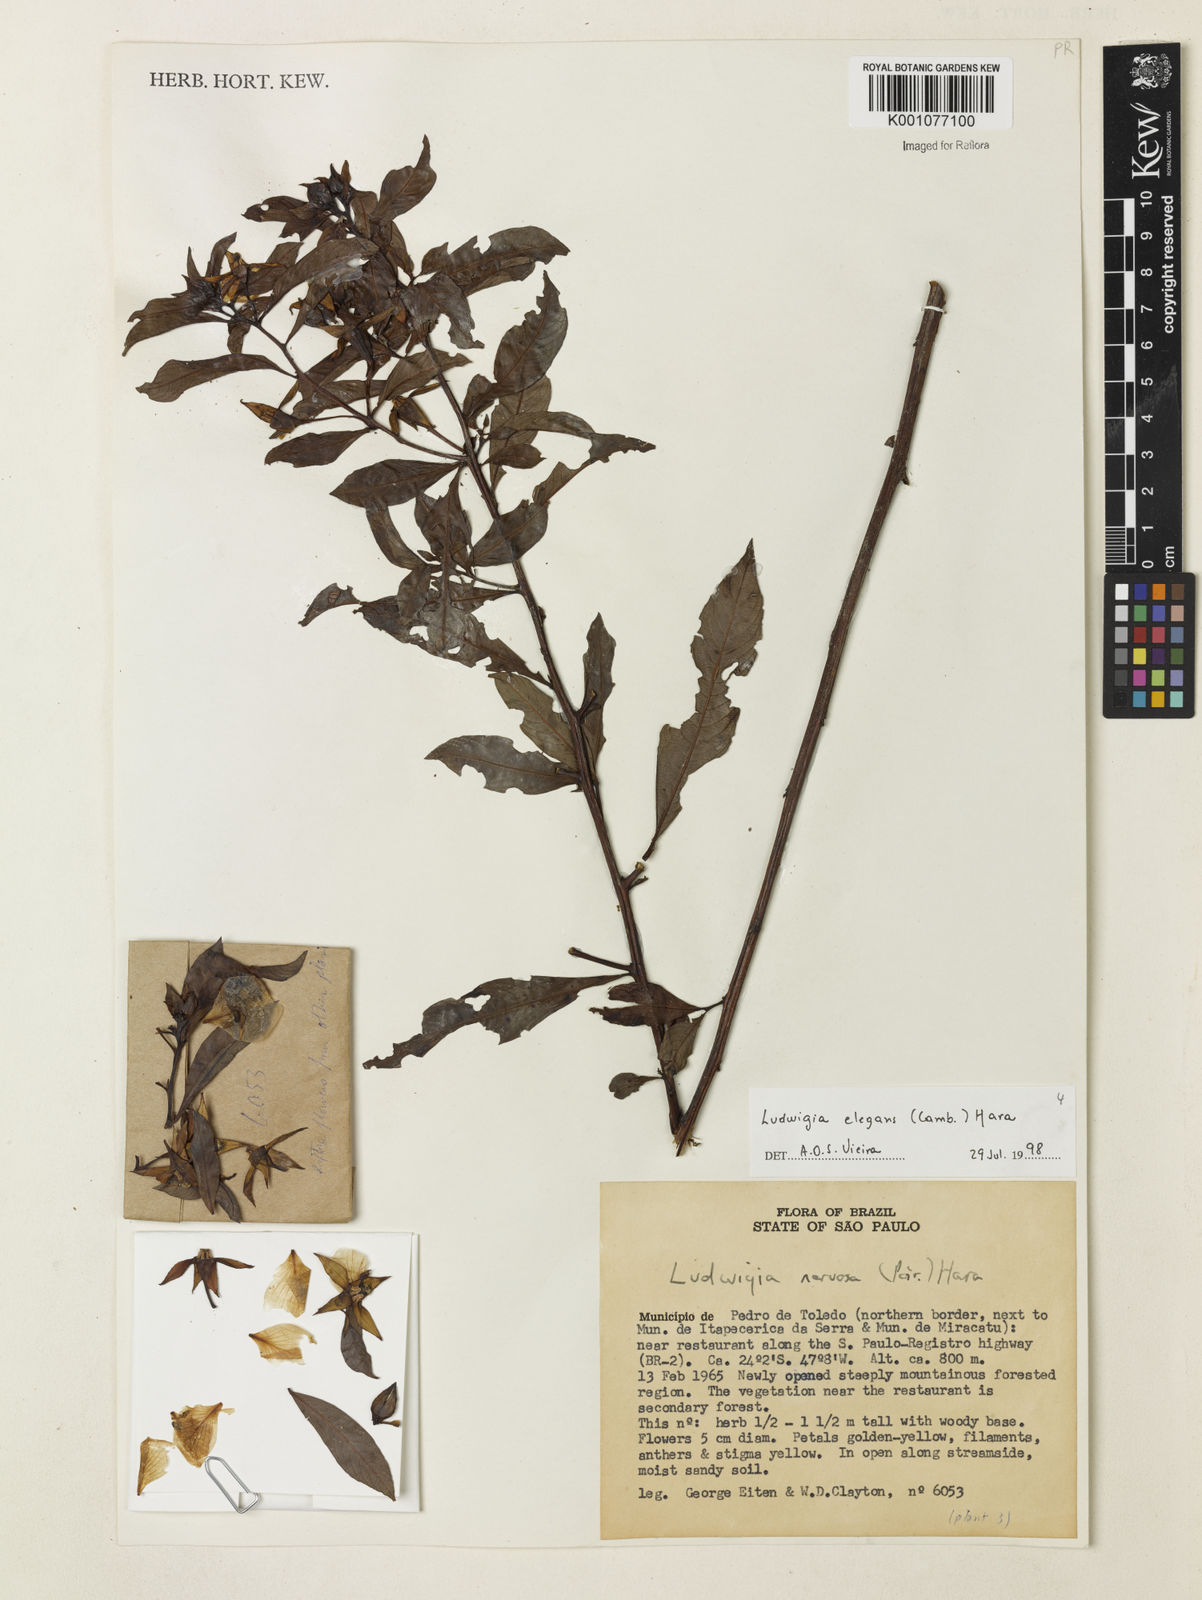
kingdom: Plantae
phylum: Tracheophyta
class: Magnoliopsida
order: Myrtales
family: Onagraceae
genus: Ludwigia
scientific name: Ludwigia elegans
